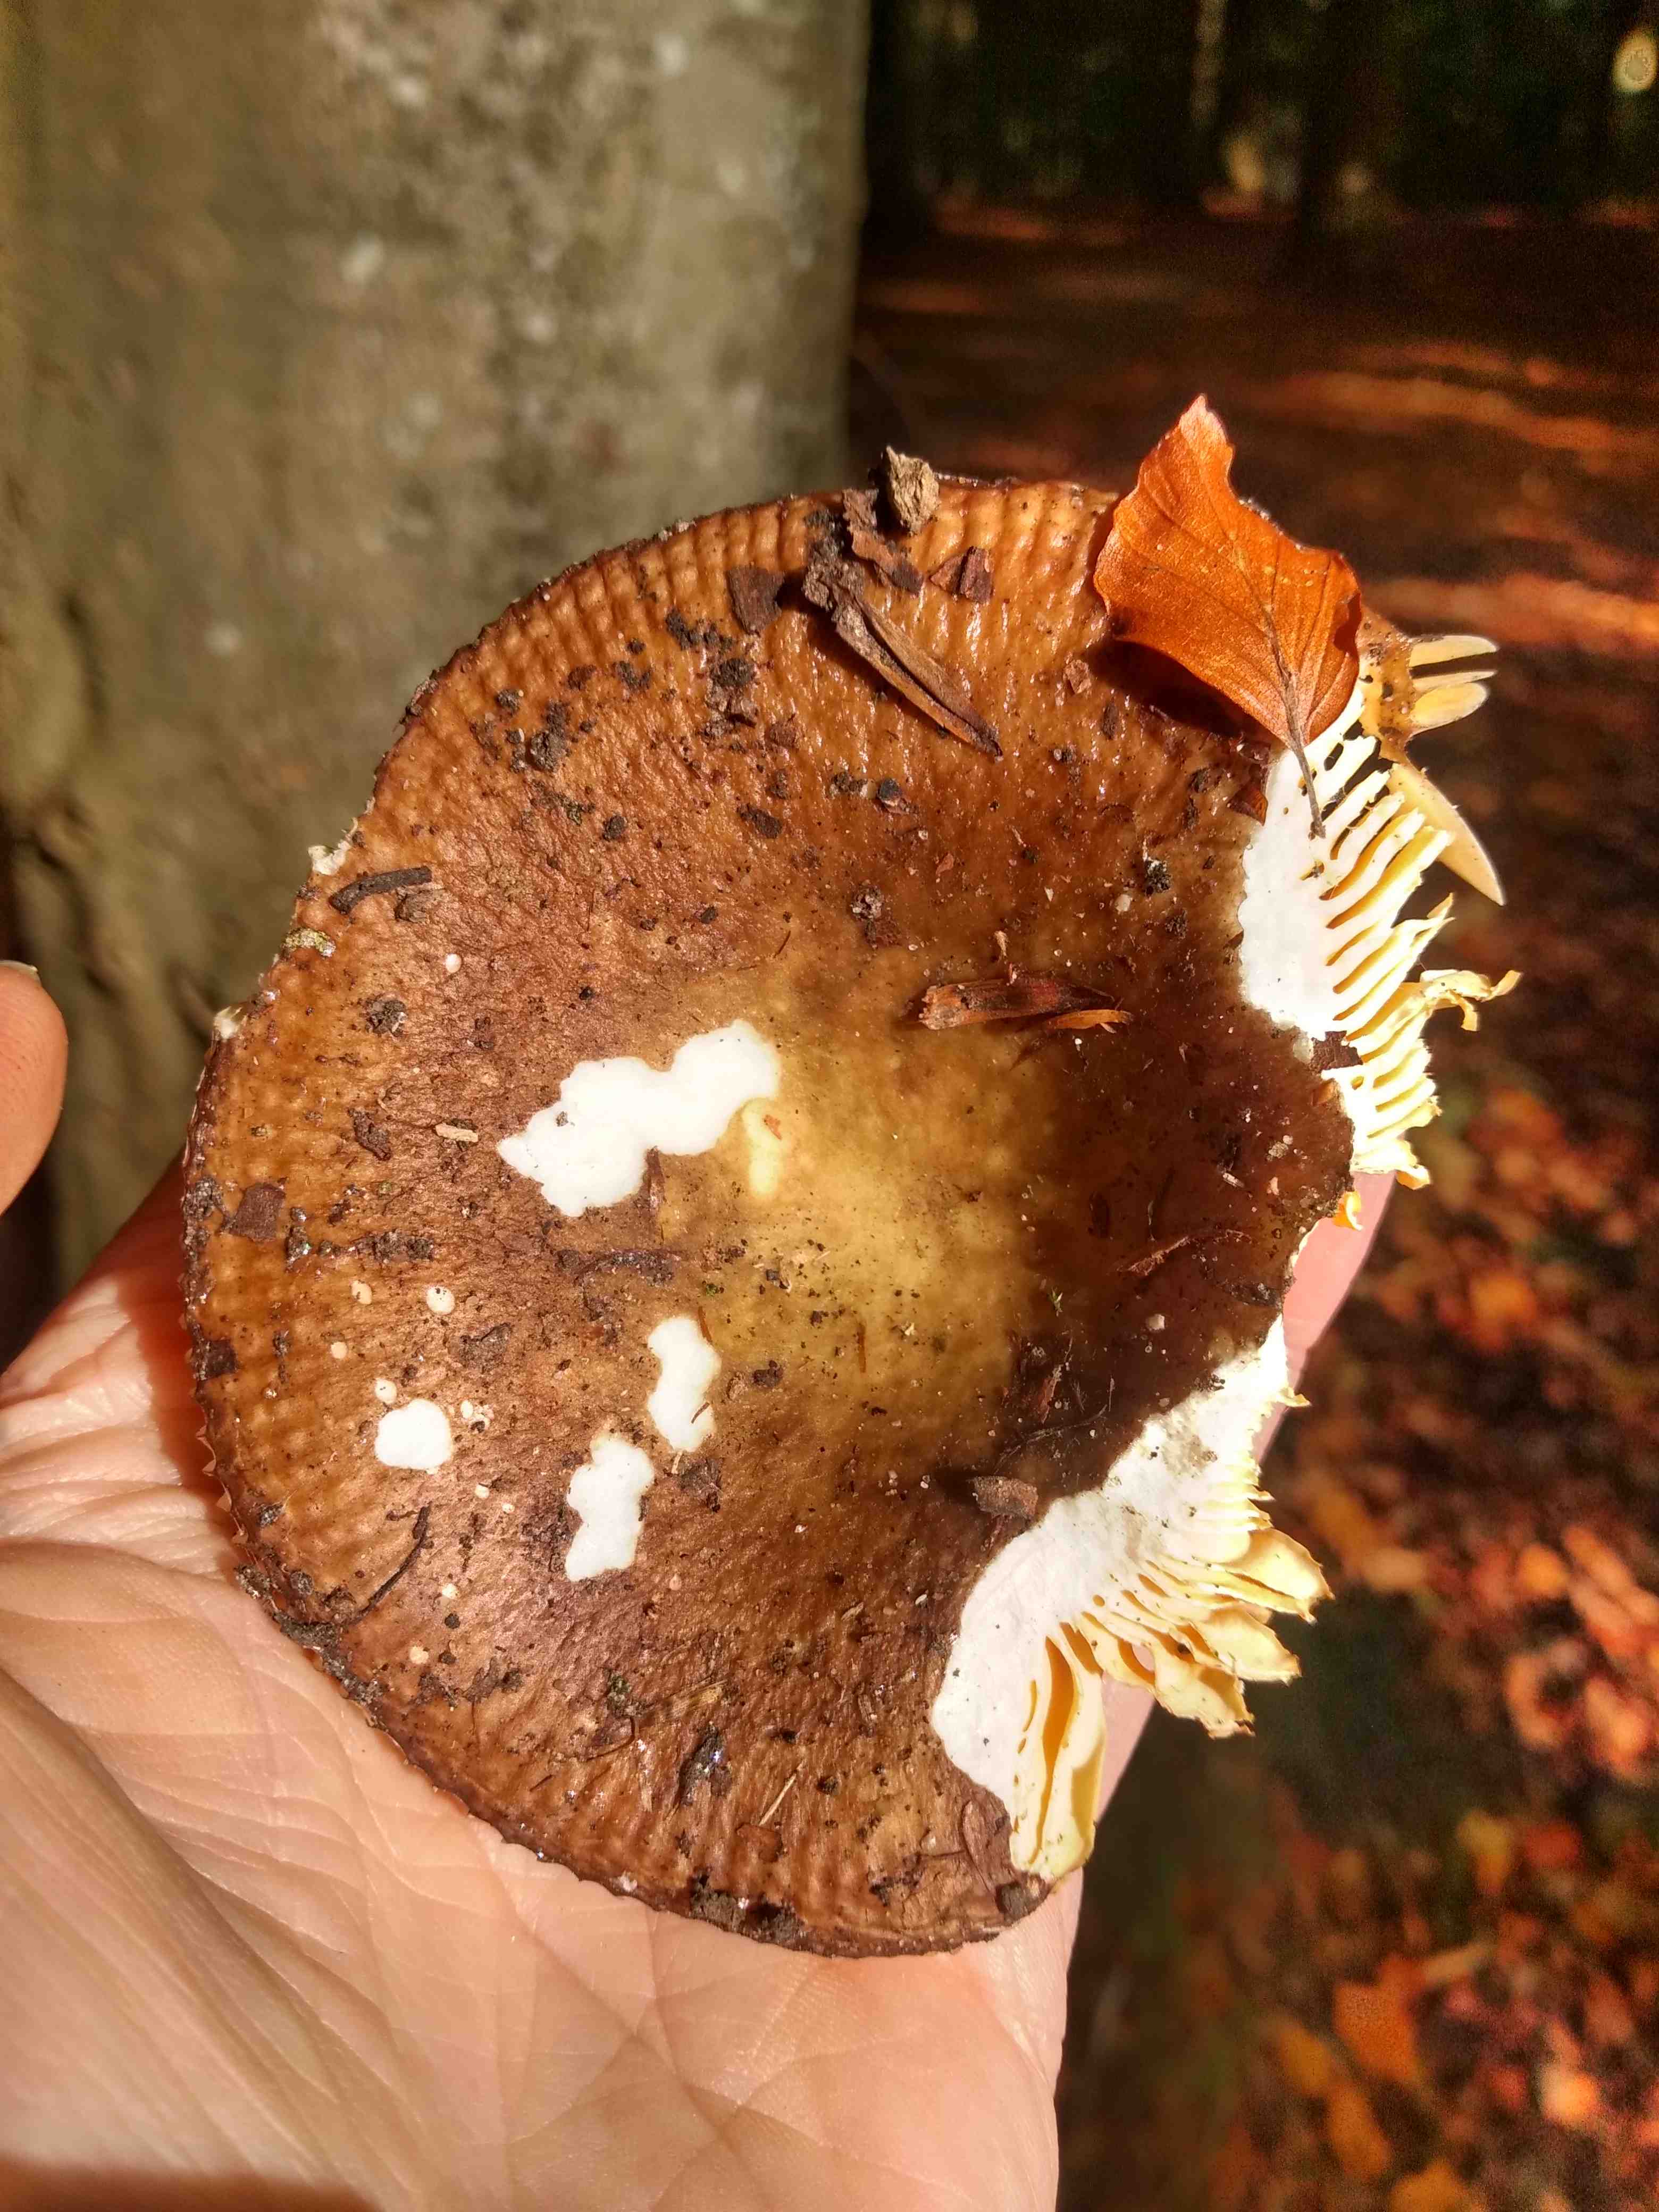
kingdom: Fungi
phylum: Basidiomycota
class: Agaricomycetes
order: Russulales
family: Russulaceae
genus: Russula
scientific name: Russula
